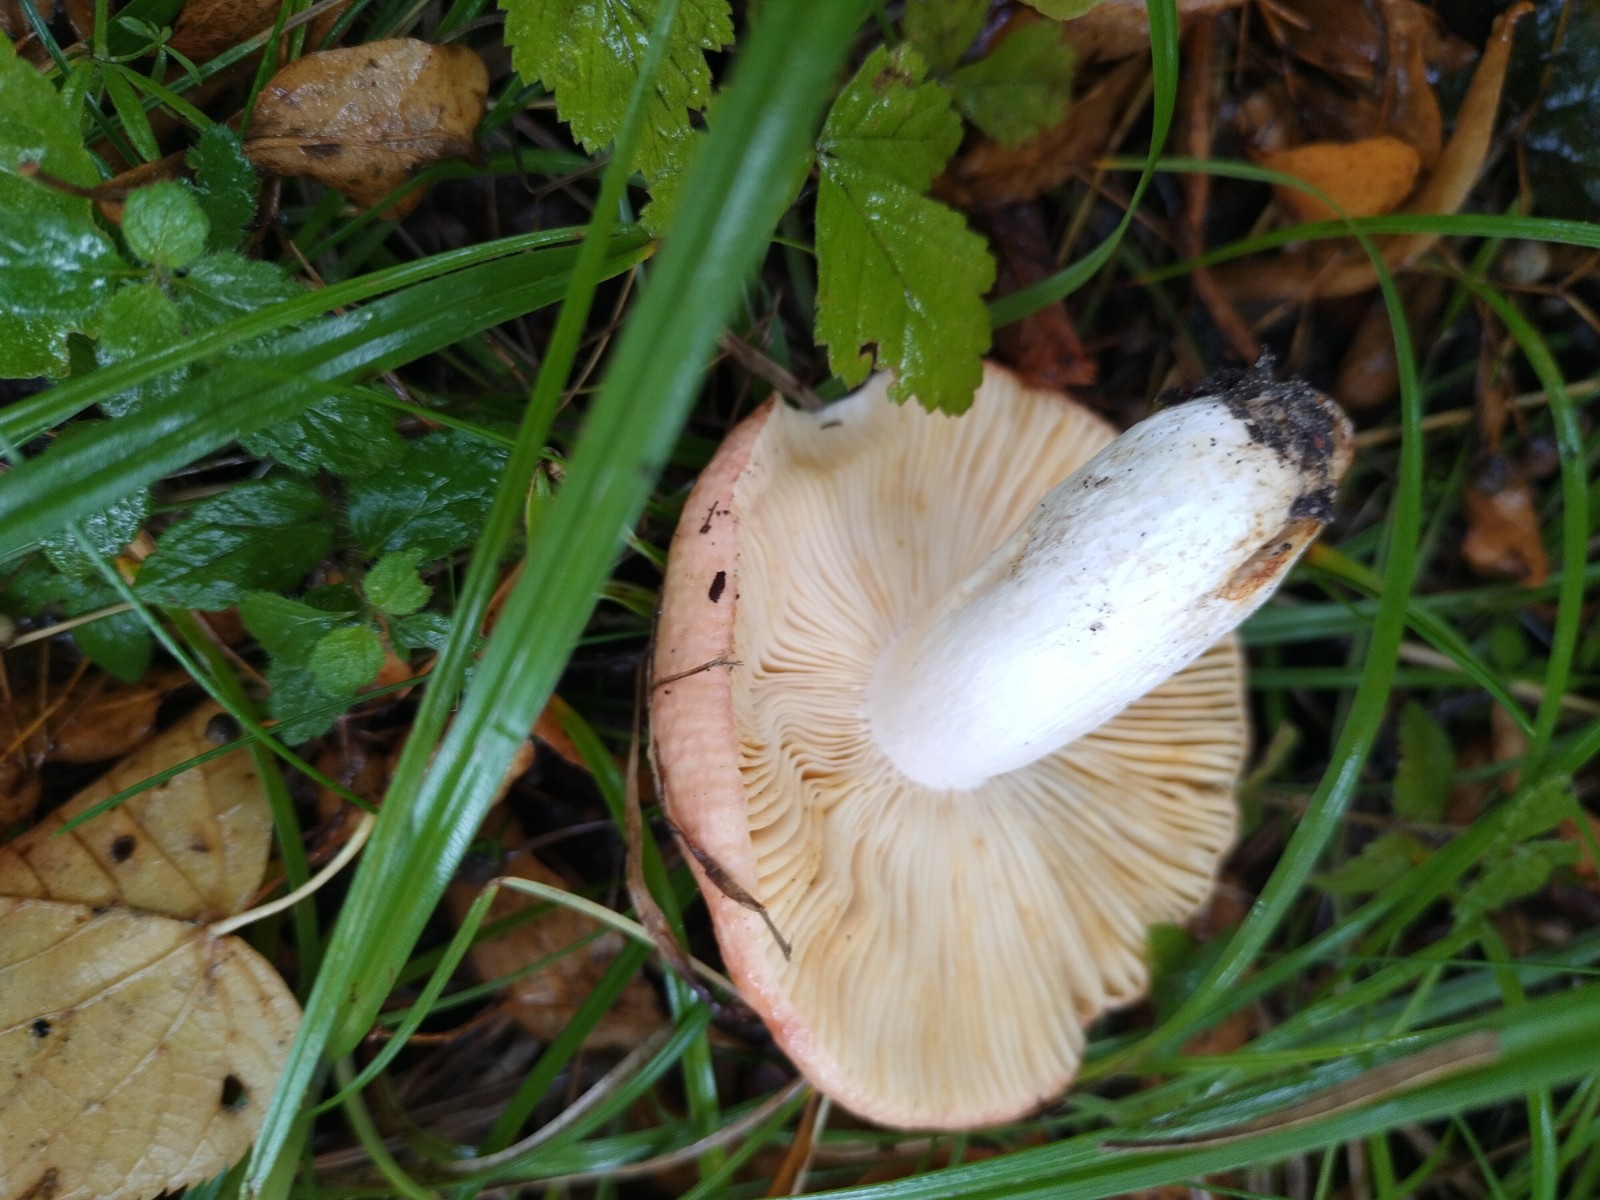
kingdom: Fungi
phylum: Basidiomycota
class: Agaricomycetes
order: Russulales
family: Russulaceae
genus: Russula
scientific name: Russula
